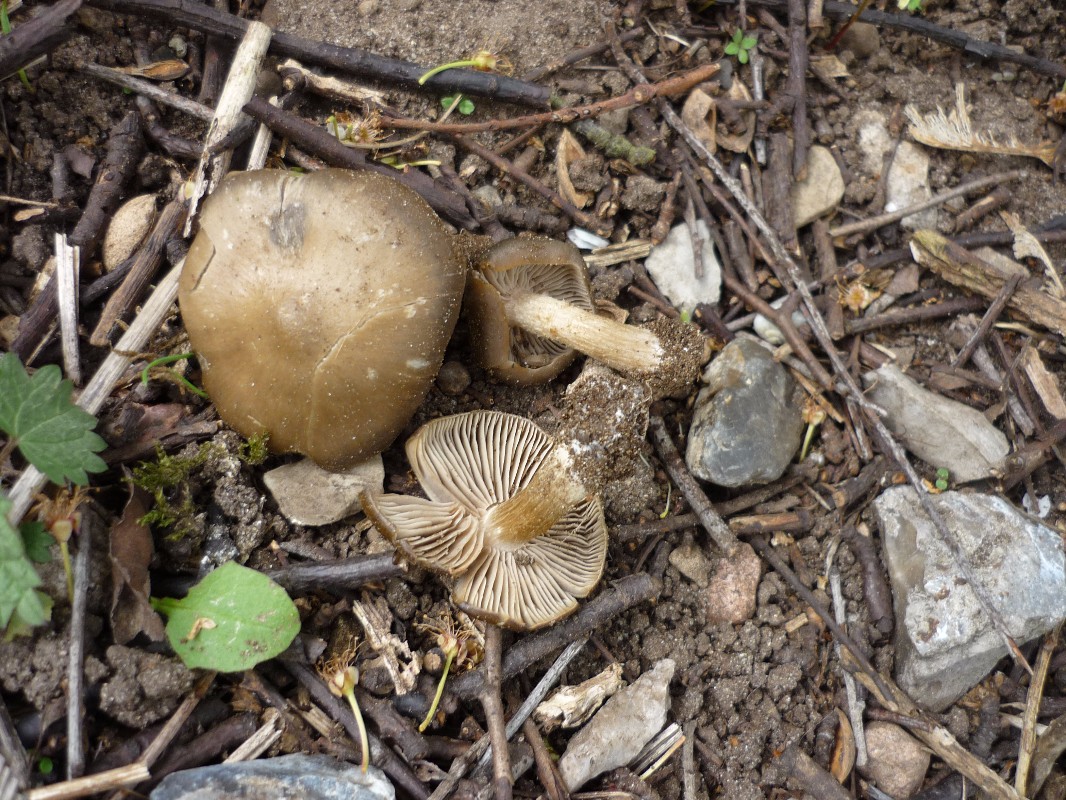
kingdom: Fungi
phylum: Basidiomycota
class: Agaricomycetes
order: Agaricales
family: Entolomataceae
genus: Entoloma
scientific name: Entoloma clypeatum
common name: flammet rødblad
